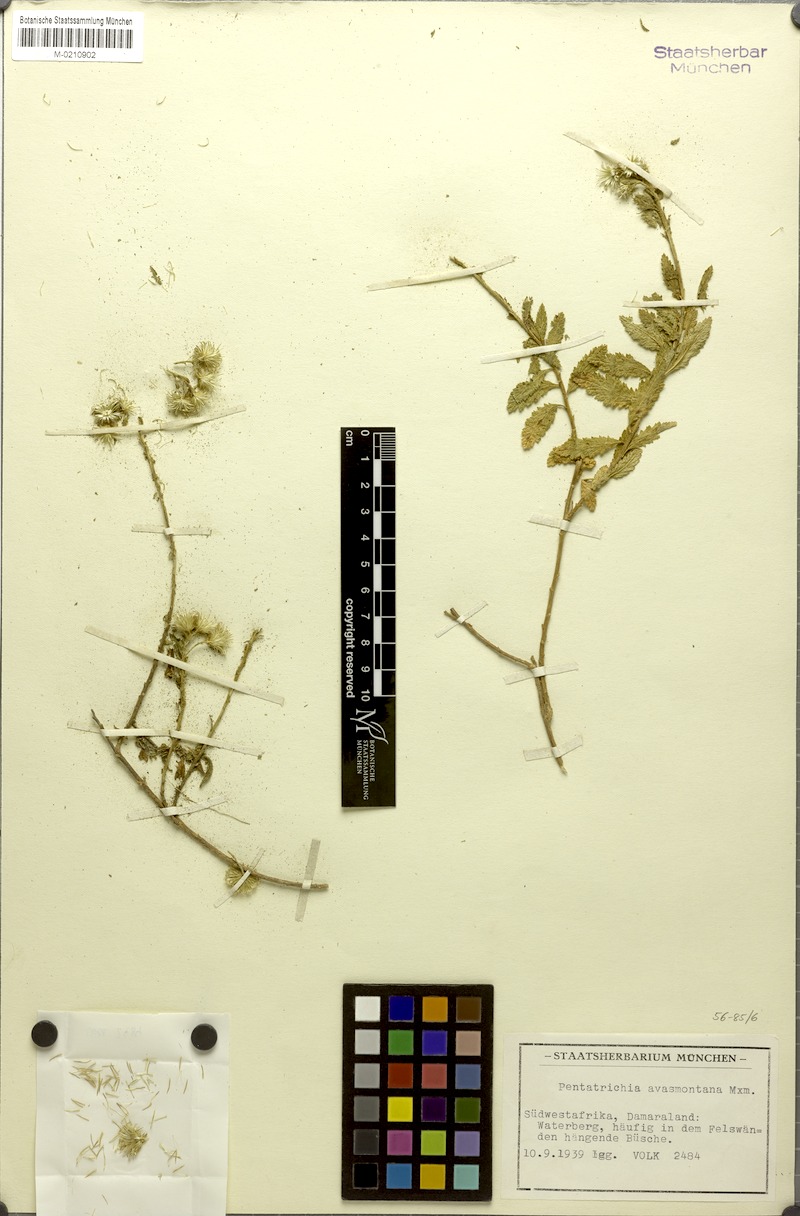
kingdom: Plantae
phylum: Tracheophyta
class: Magnoliopsida
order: Asterales
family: Asteraceae
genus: Pentatrichia
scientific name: Pentatrichia rehmii
